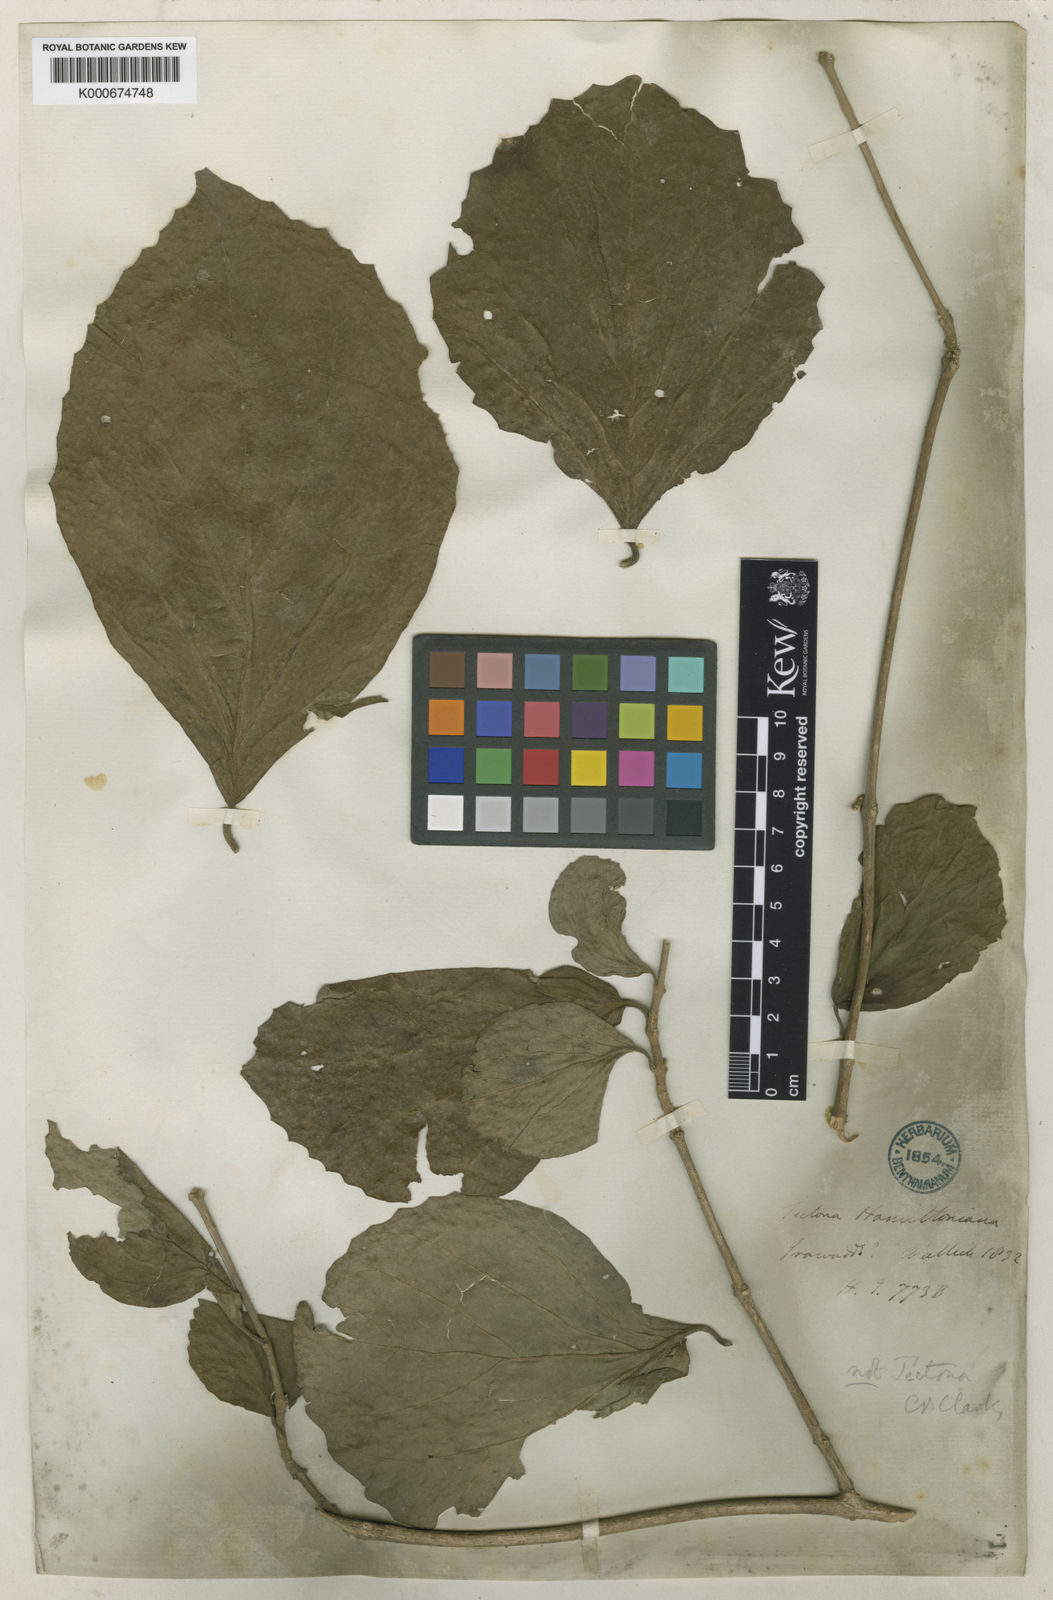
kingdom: Plantae
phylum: Tracheophyta
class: Magnoliopsida
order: Lamiales
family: Lamiaceae
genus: Tectona
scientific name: Tectona hamiltoniana
